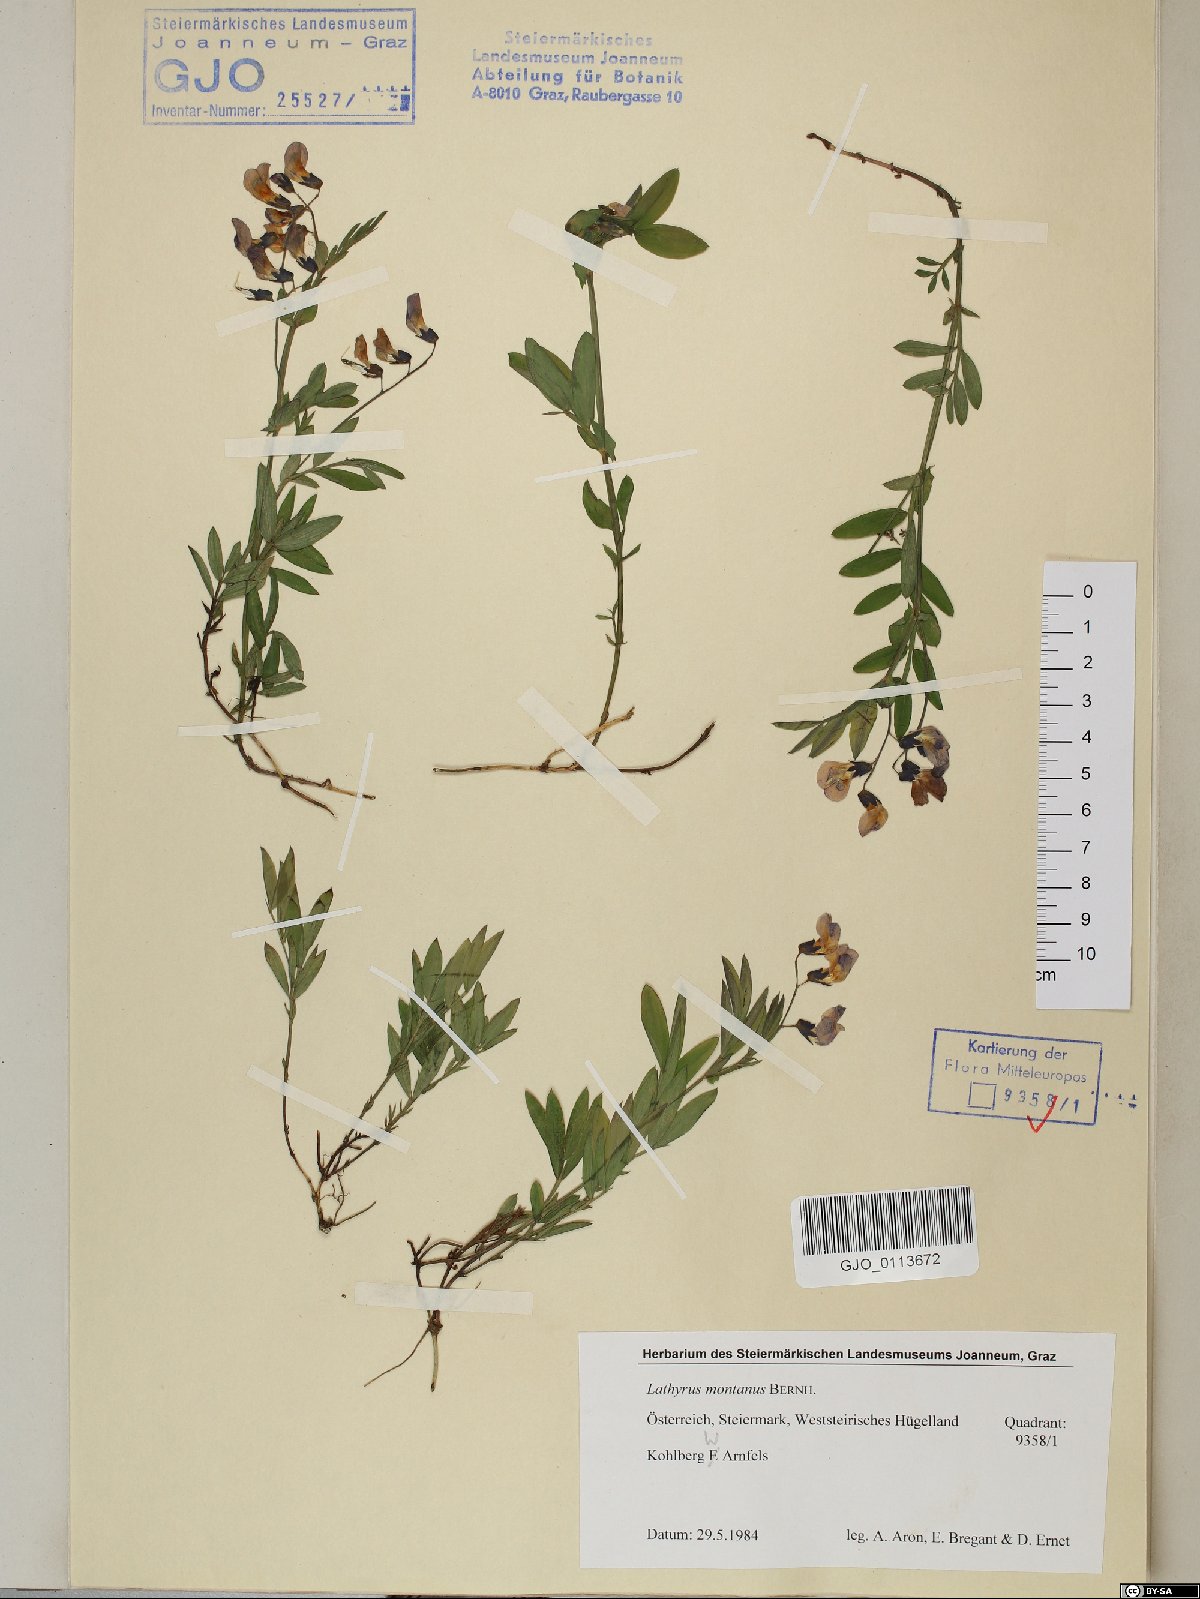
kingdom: Plantae
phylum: Tracheophyta
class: Magnoliopsida
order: Fabales
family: Fabaceae
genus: Lathyrus
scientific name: Lathyrus linifolius
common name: Bitter-vetch
